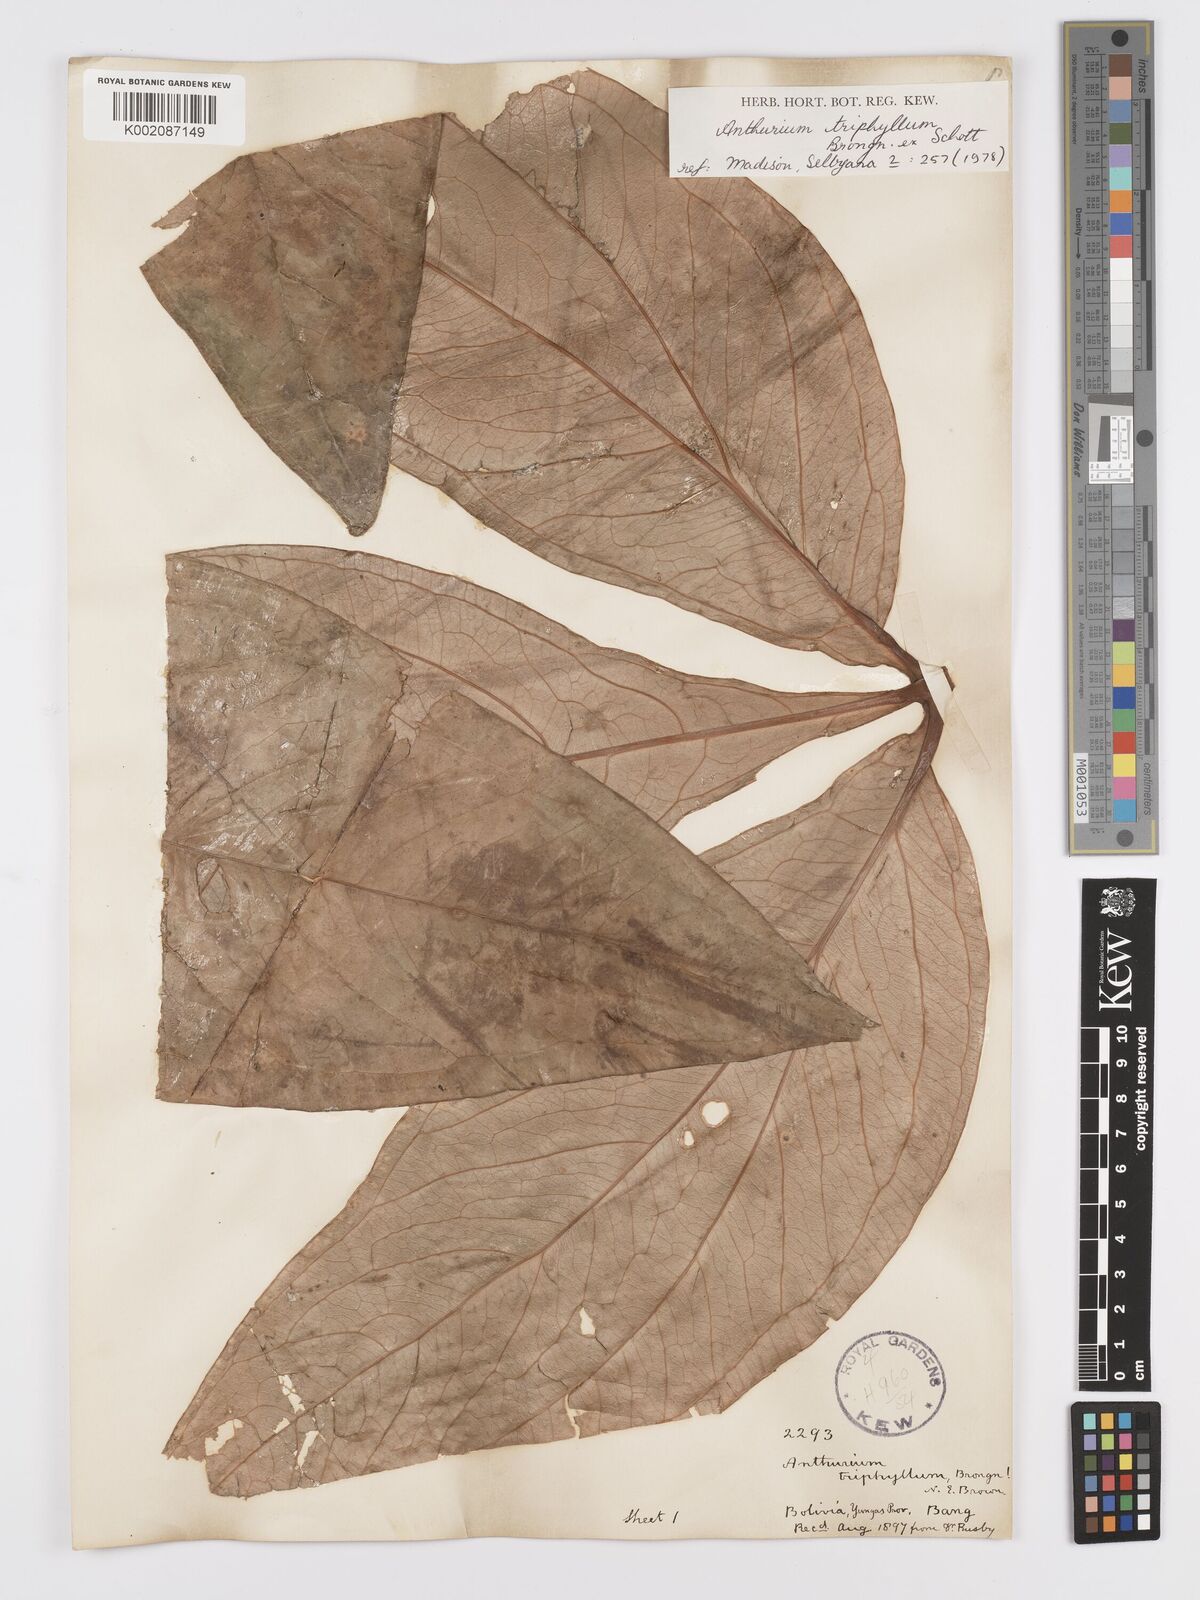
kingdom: Plantae
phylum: Tracheophyta
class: Liliopsida
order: Alismatales
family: Araceae
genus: Anthurium
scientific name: Anthurium triphyllum
